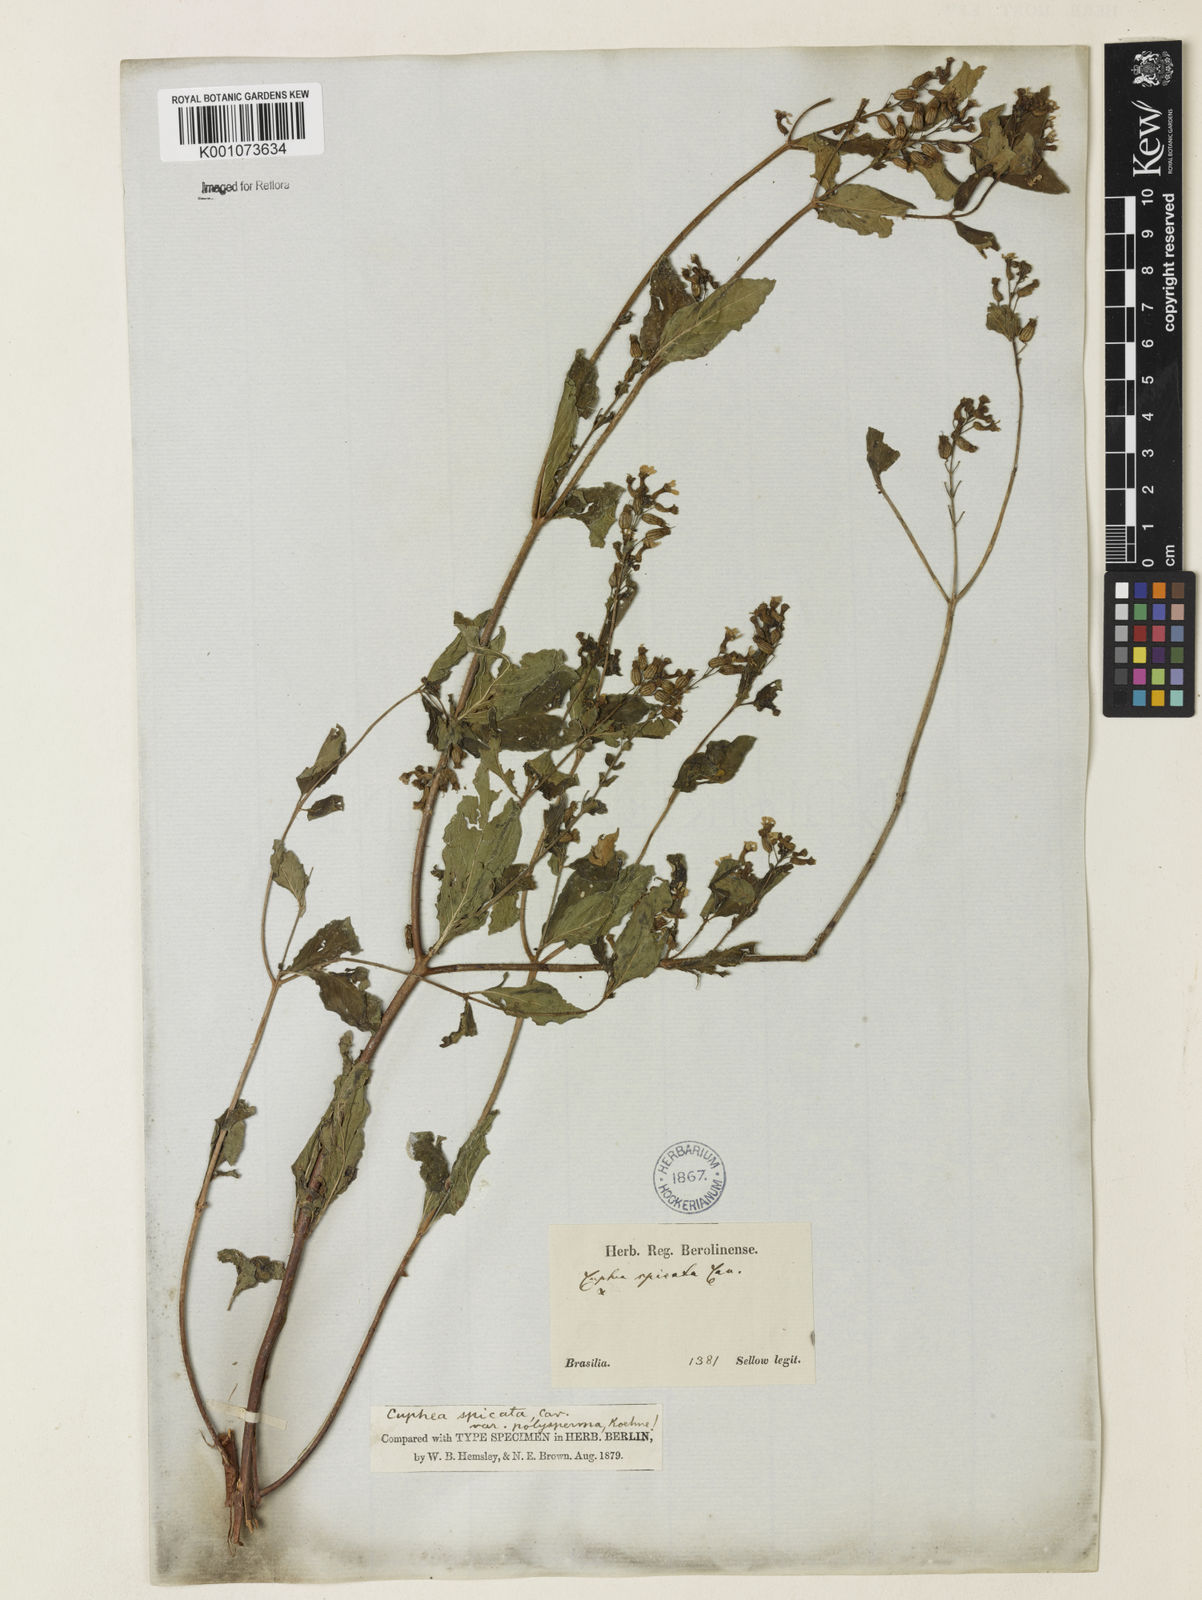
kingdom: Plantae
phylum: Tracheophyta
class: Magnoliopsida
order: Myrtales
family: Lythraceae
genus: Cuphea
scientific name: Cuphea racemosa
